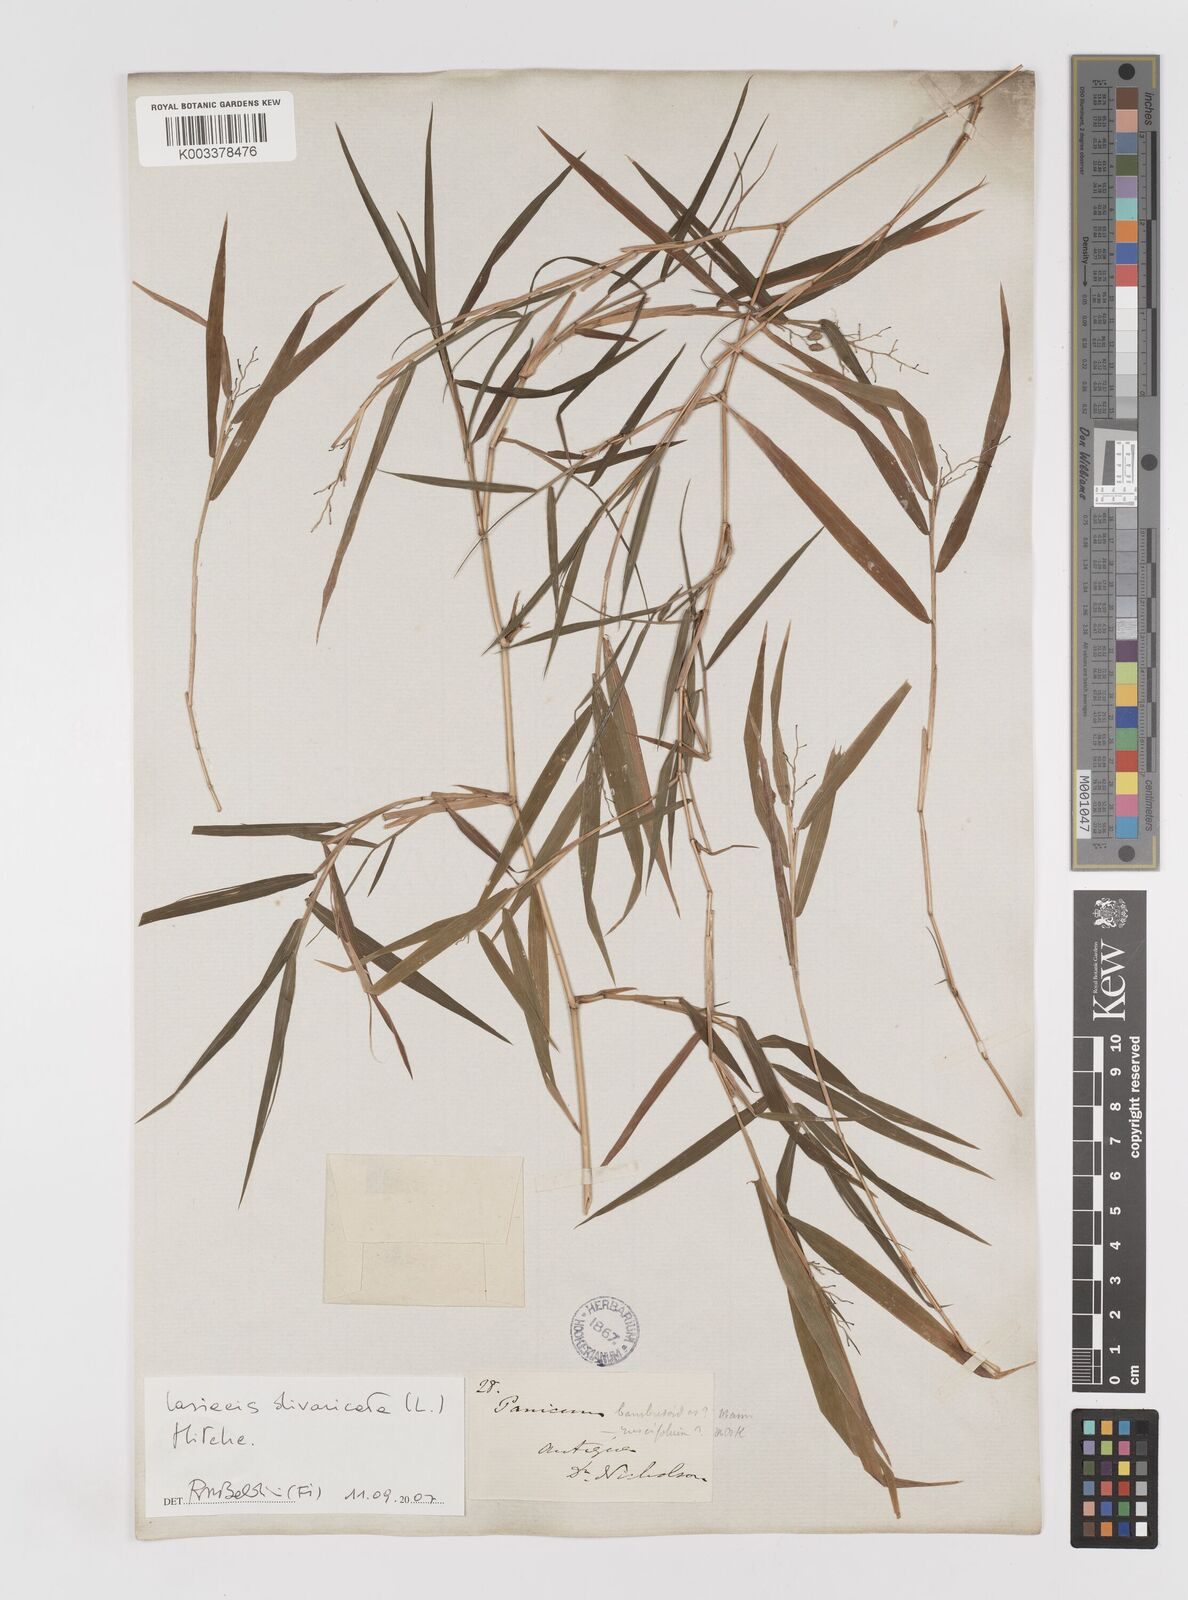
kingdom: Plantae
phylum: Tracheophyta
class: Liliopsida
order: Poales
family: Poaceae
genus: Lasiacis
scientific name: Lasiacis divaricata
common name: Smallcane
